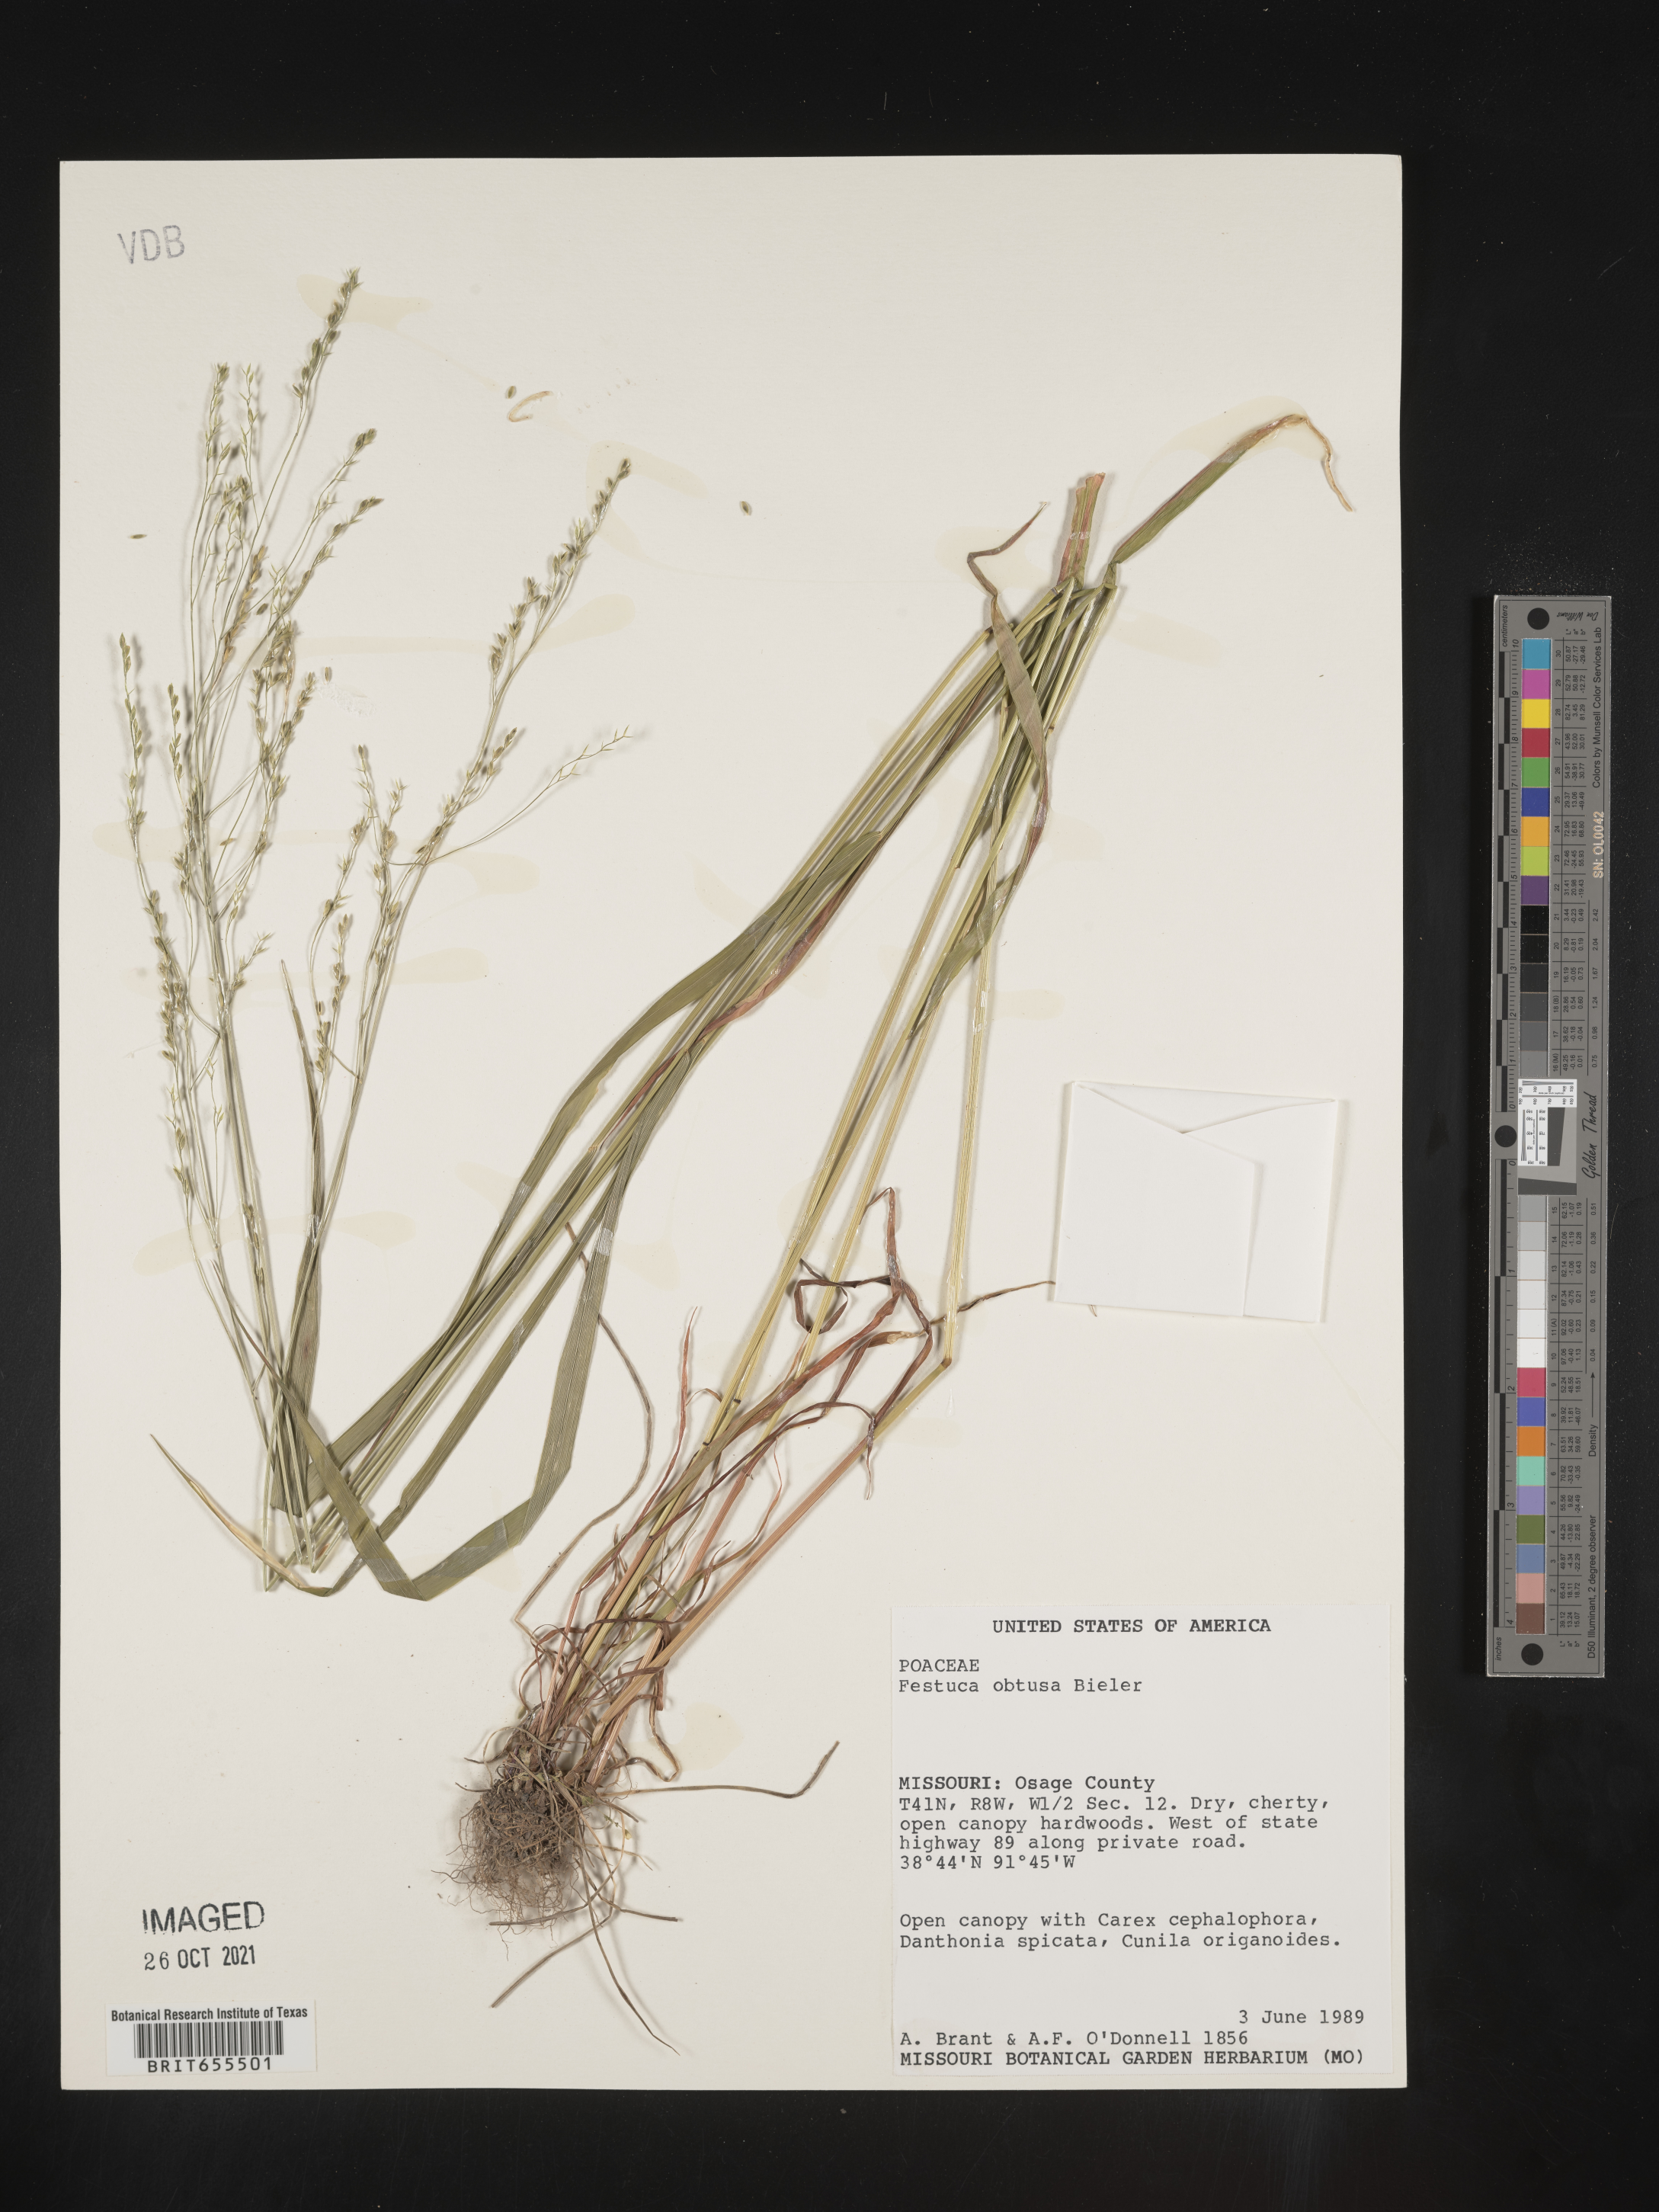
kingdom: Plantae
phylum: Tracheophyta
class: Liliopsida
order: Poales
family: Poaceae
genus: Festuca
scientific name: Festuca
